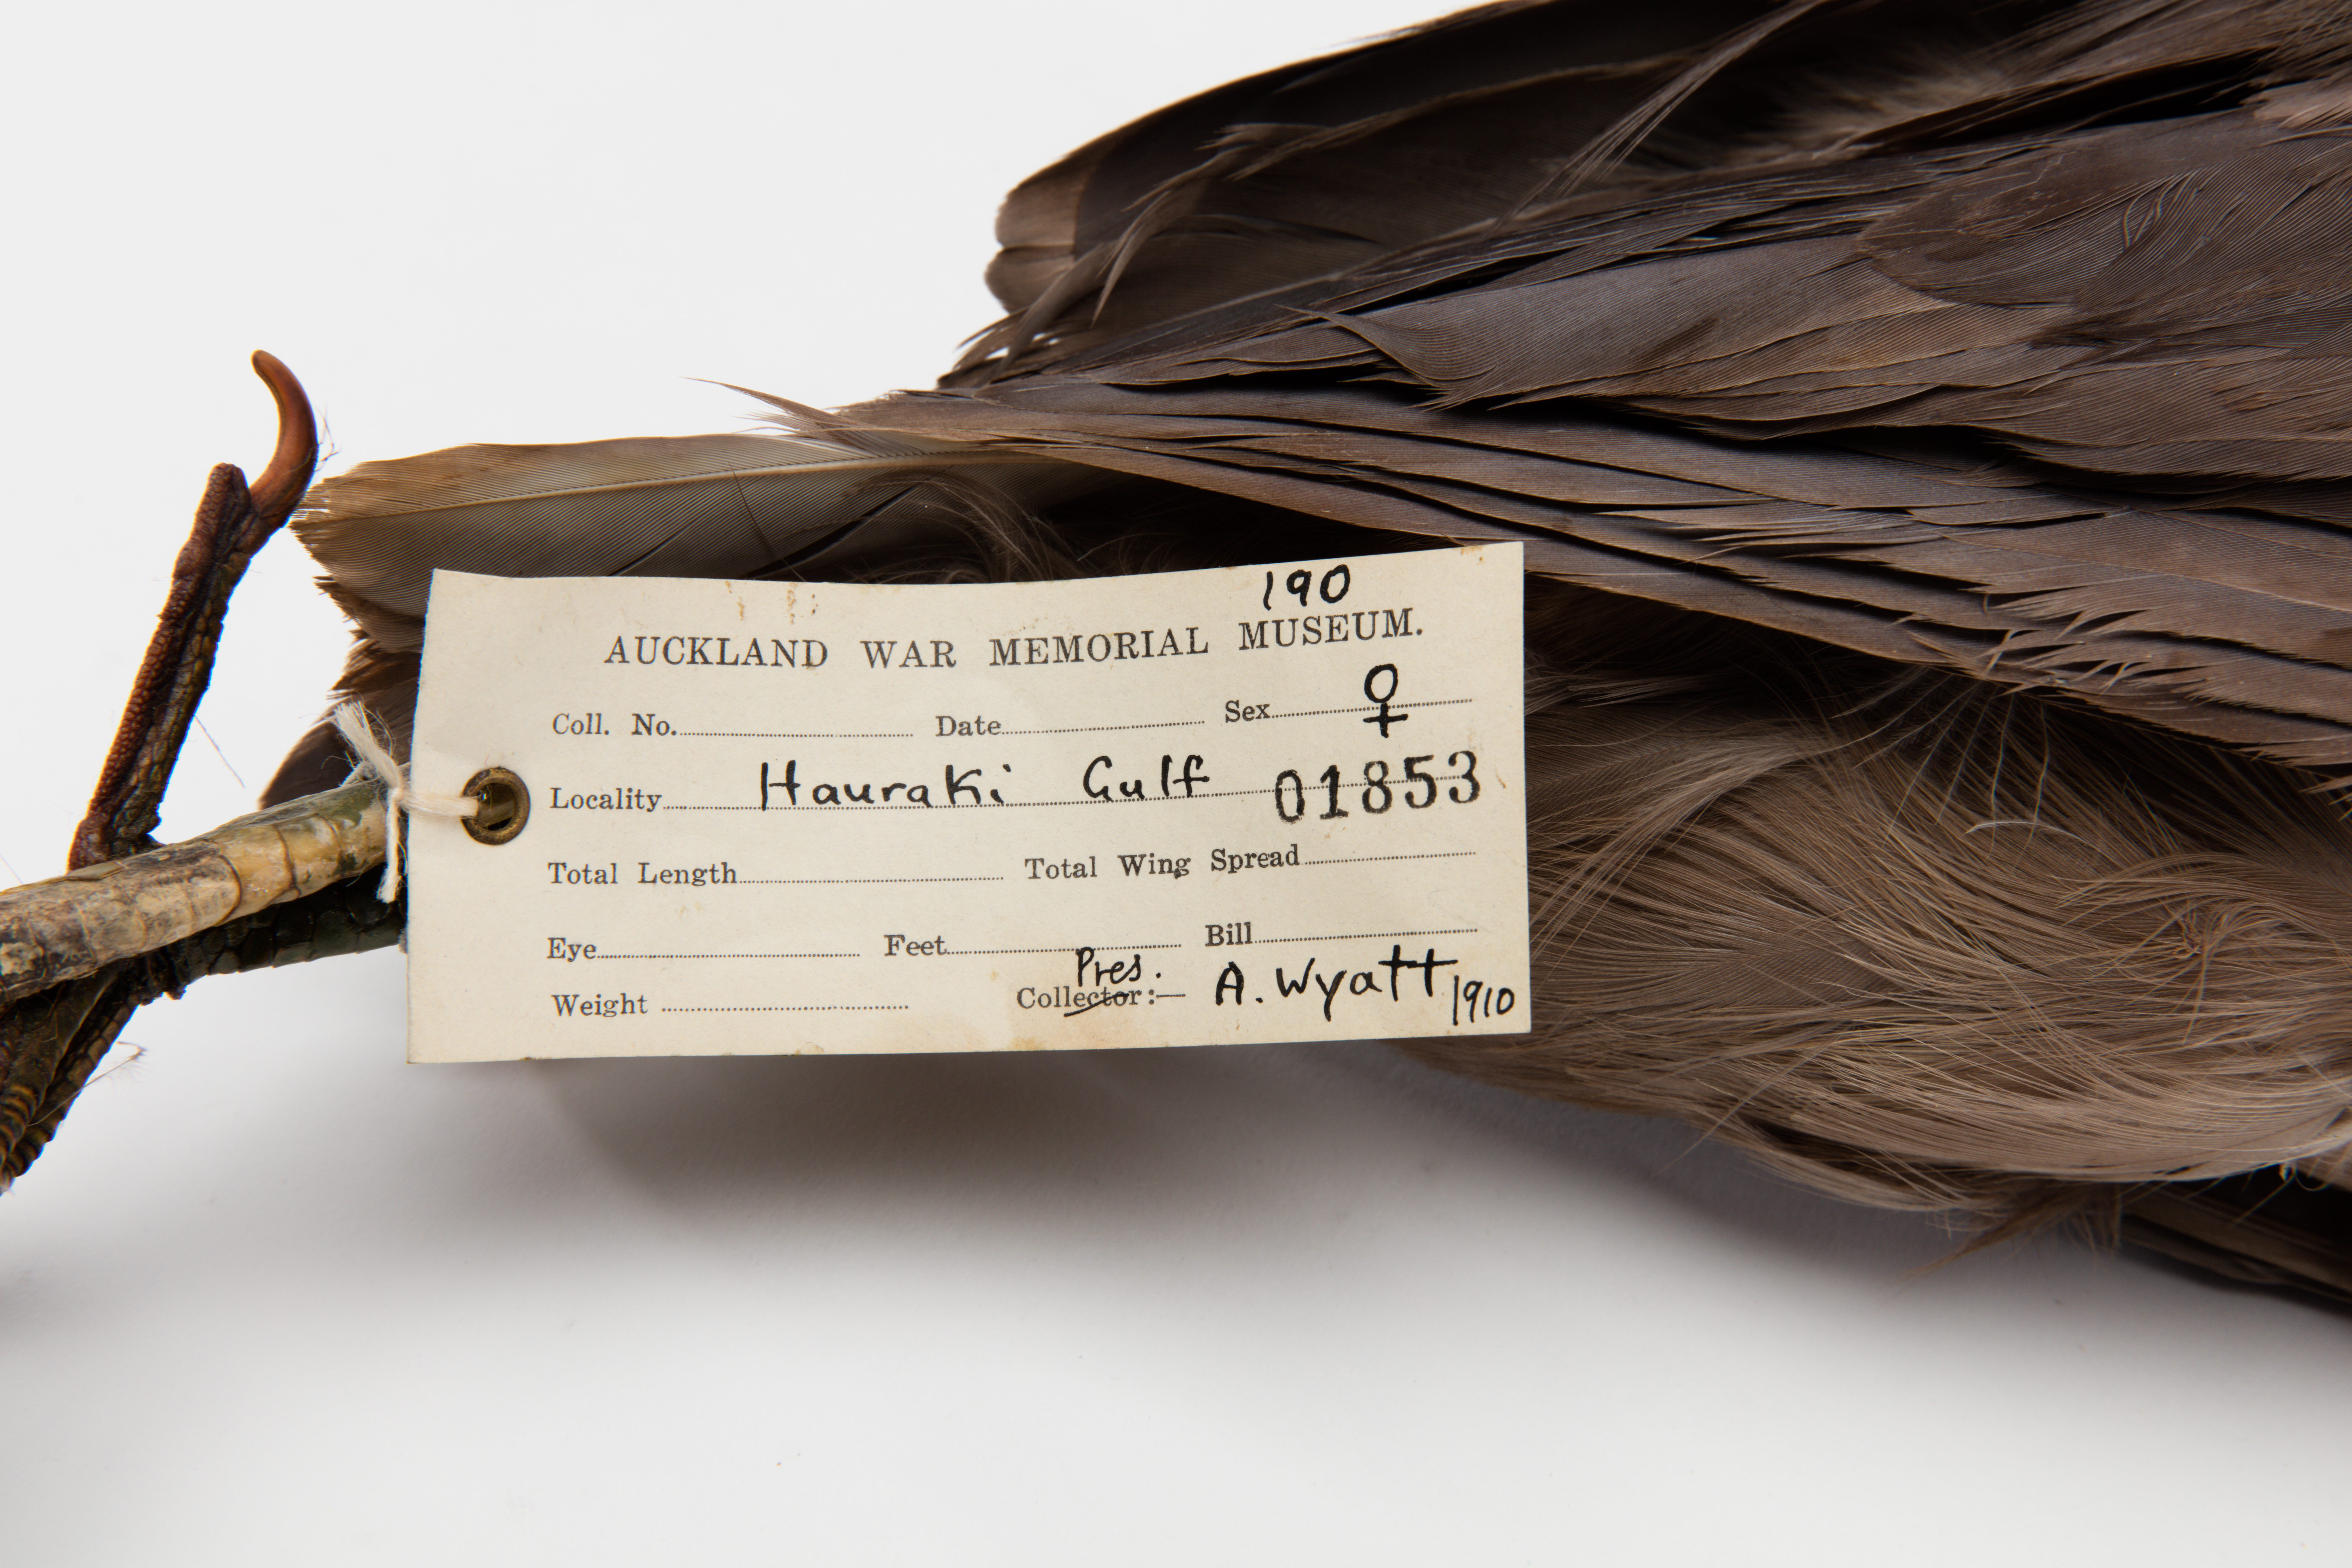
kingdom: Animalia
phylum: Chordata
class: Aves
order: Pelecaniformes
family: Ardeidae
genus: Egretta
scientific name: Egretta sacra
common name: Pacific reef heron
